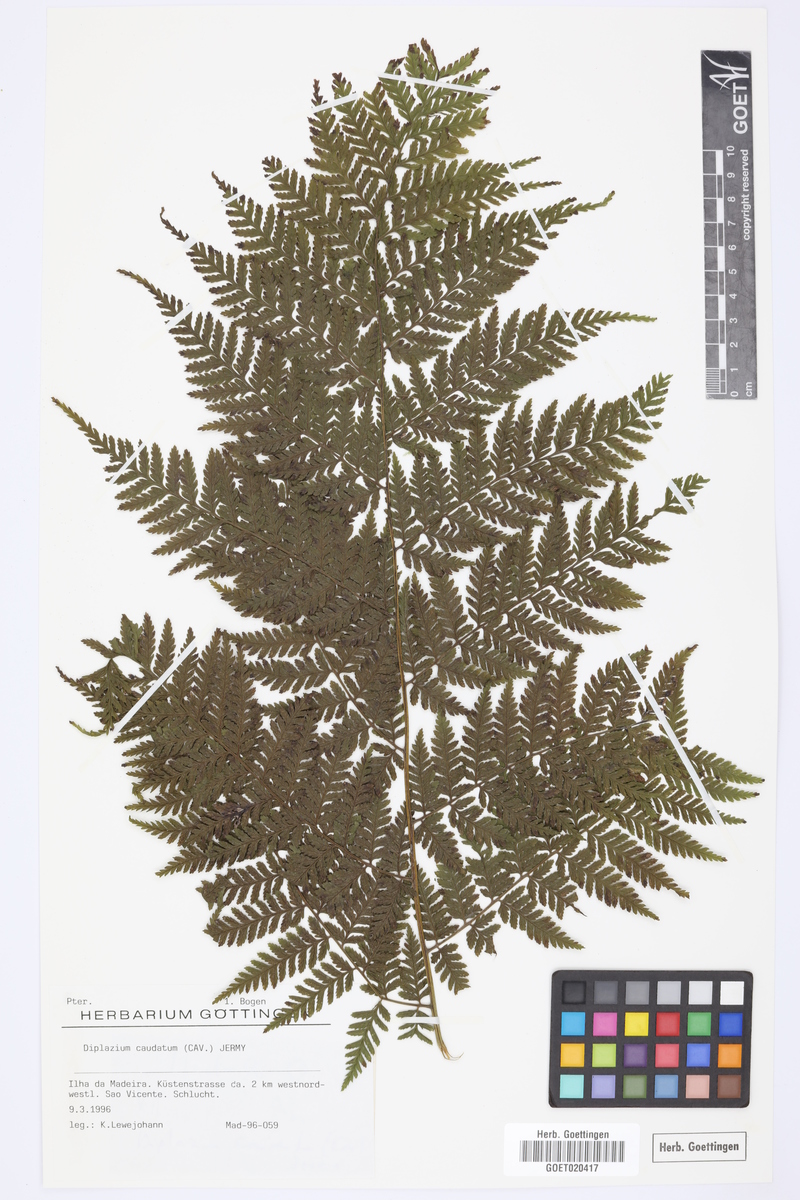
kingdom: Plantae
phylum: Tracheophyta
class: Polypodiopsida
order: Polypodiales
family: Athyriaceae
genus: Diplazium
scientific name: Diplazium caudatum
